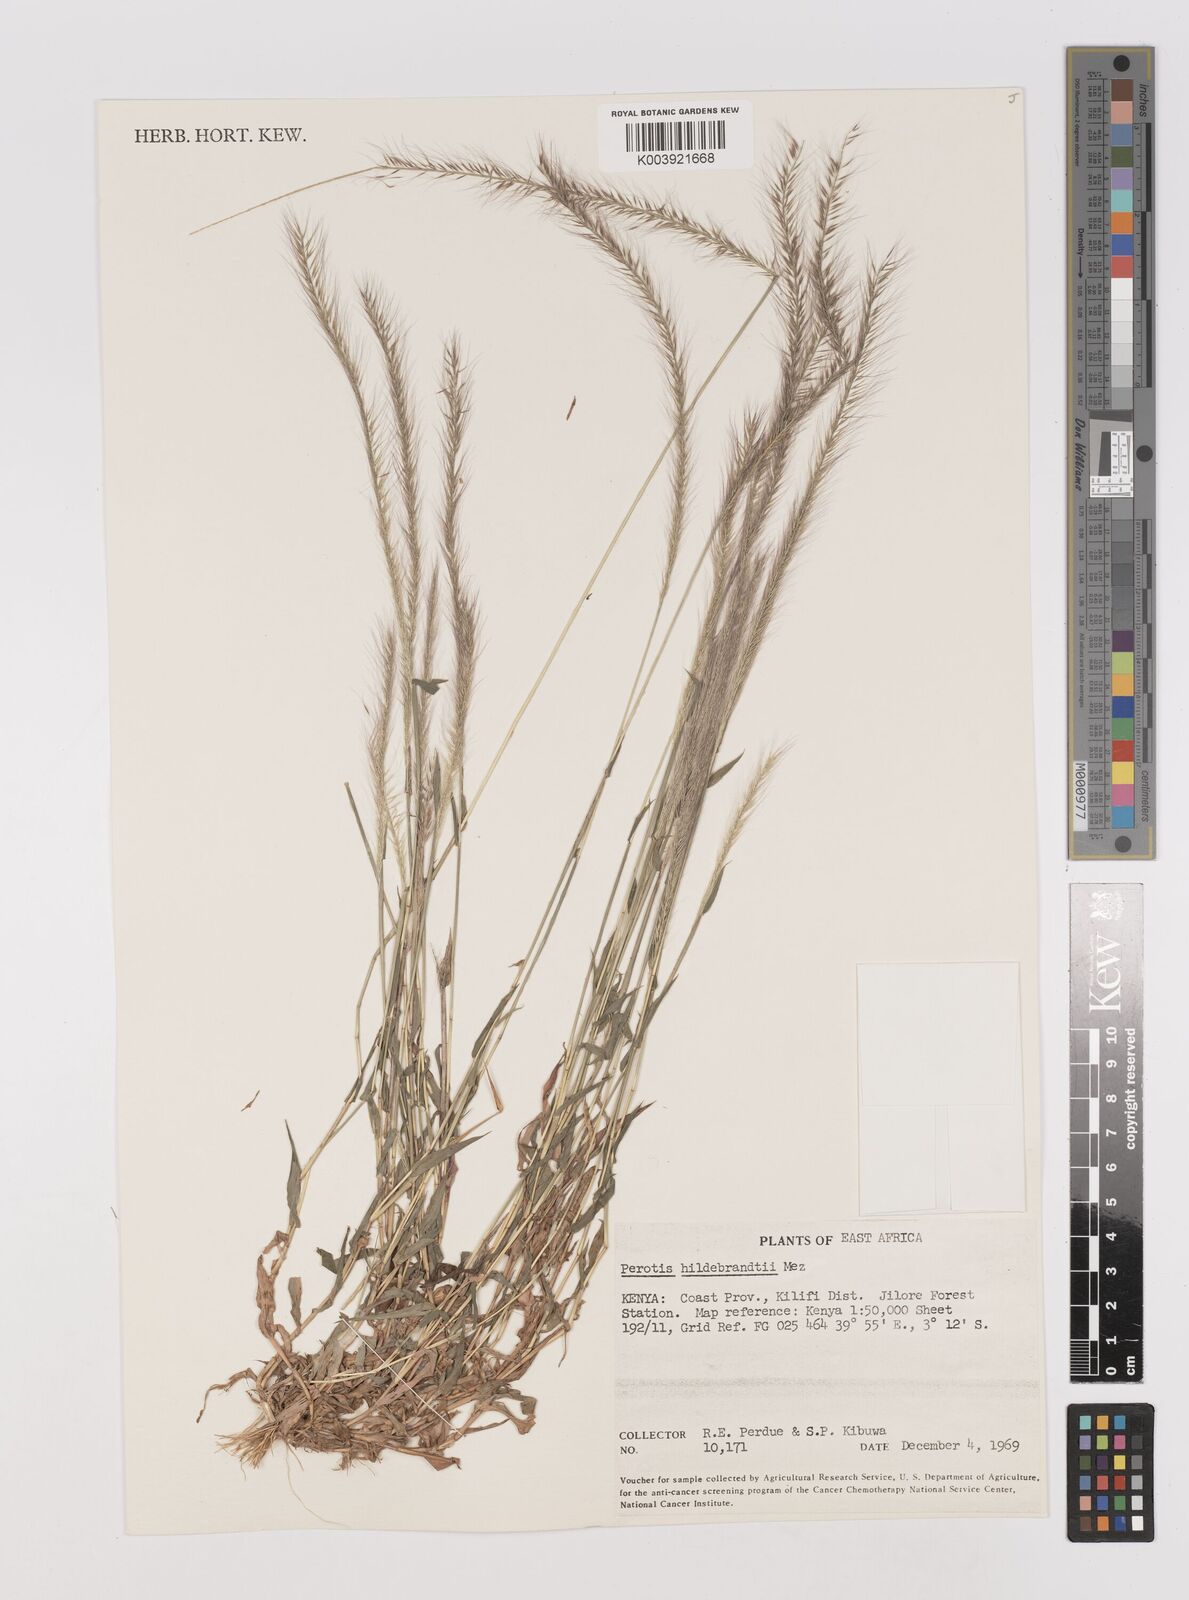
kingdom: Plantae
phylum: Tracheophyta
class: Liliopsida
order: Poales
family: Poaceae
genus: Perotis
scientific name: Perotis hildebrandtii
